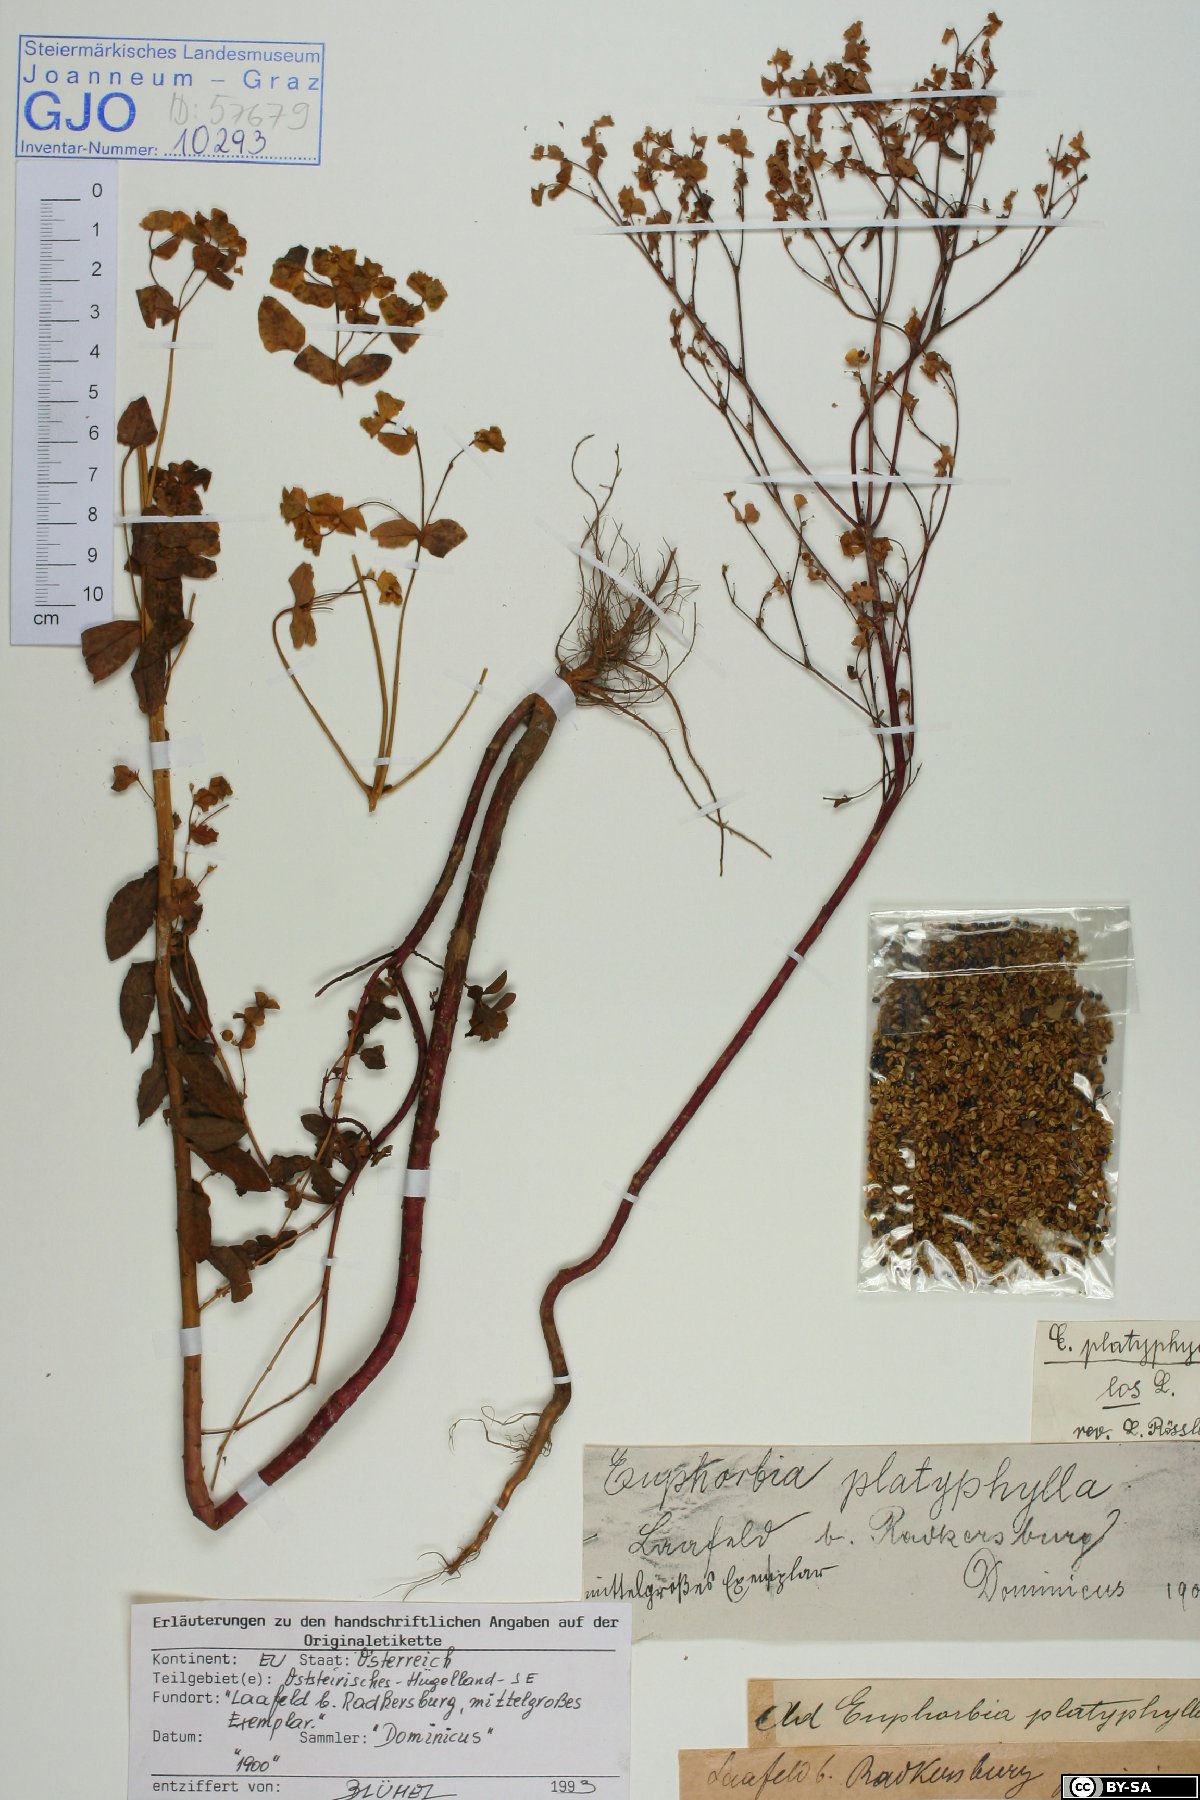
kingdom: Plantae
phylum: Tracheophyta
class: Magnoliopsida
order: Malpighiales
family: Euphorbiaceae
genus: Euphorbia
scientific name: Euphorbia platyphyllos
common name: Broad-leaved spurge
